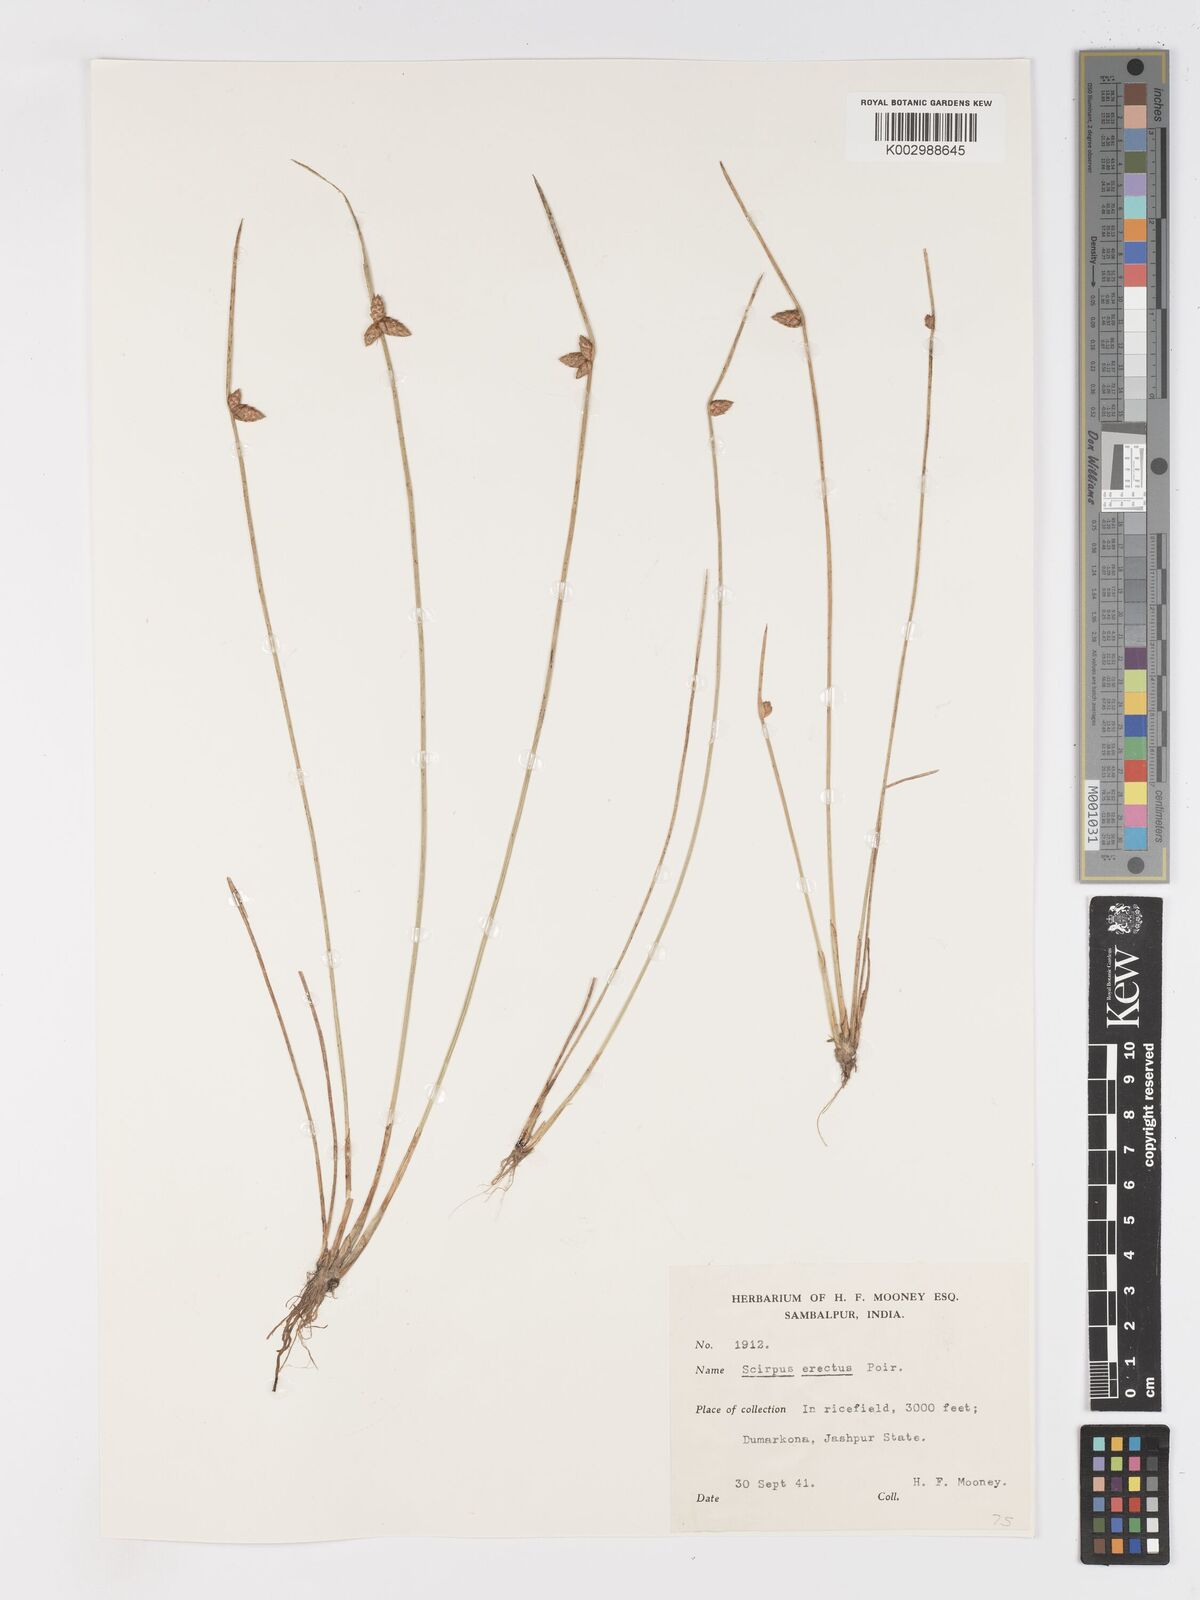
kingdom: Plantae
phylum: Tracheophyta
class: Liliopsida
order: Poales
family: Cyperaceae
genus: Schoenoplectiella
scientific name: Schoenoplectiella juncoides
